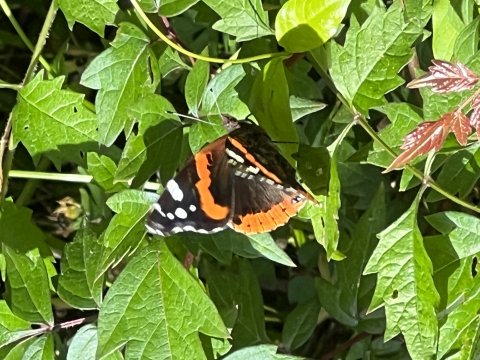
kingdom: Animalia
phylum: Arthropoda
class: Insecta
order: Lepidoptera
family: Nymphalidae
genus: Vanessa
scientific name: Vanessa atalanta
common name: Red Admiral
